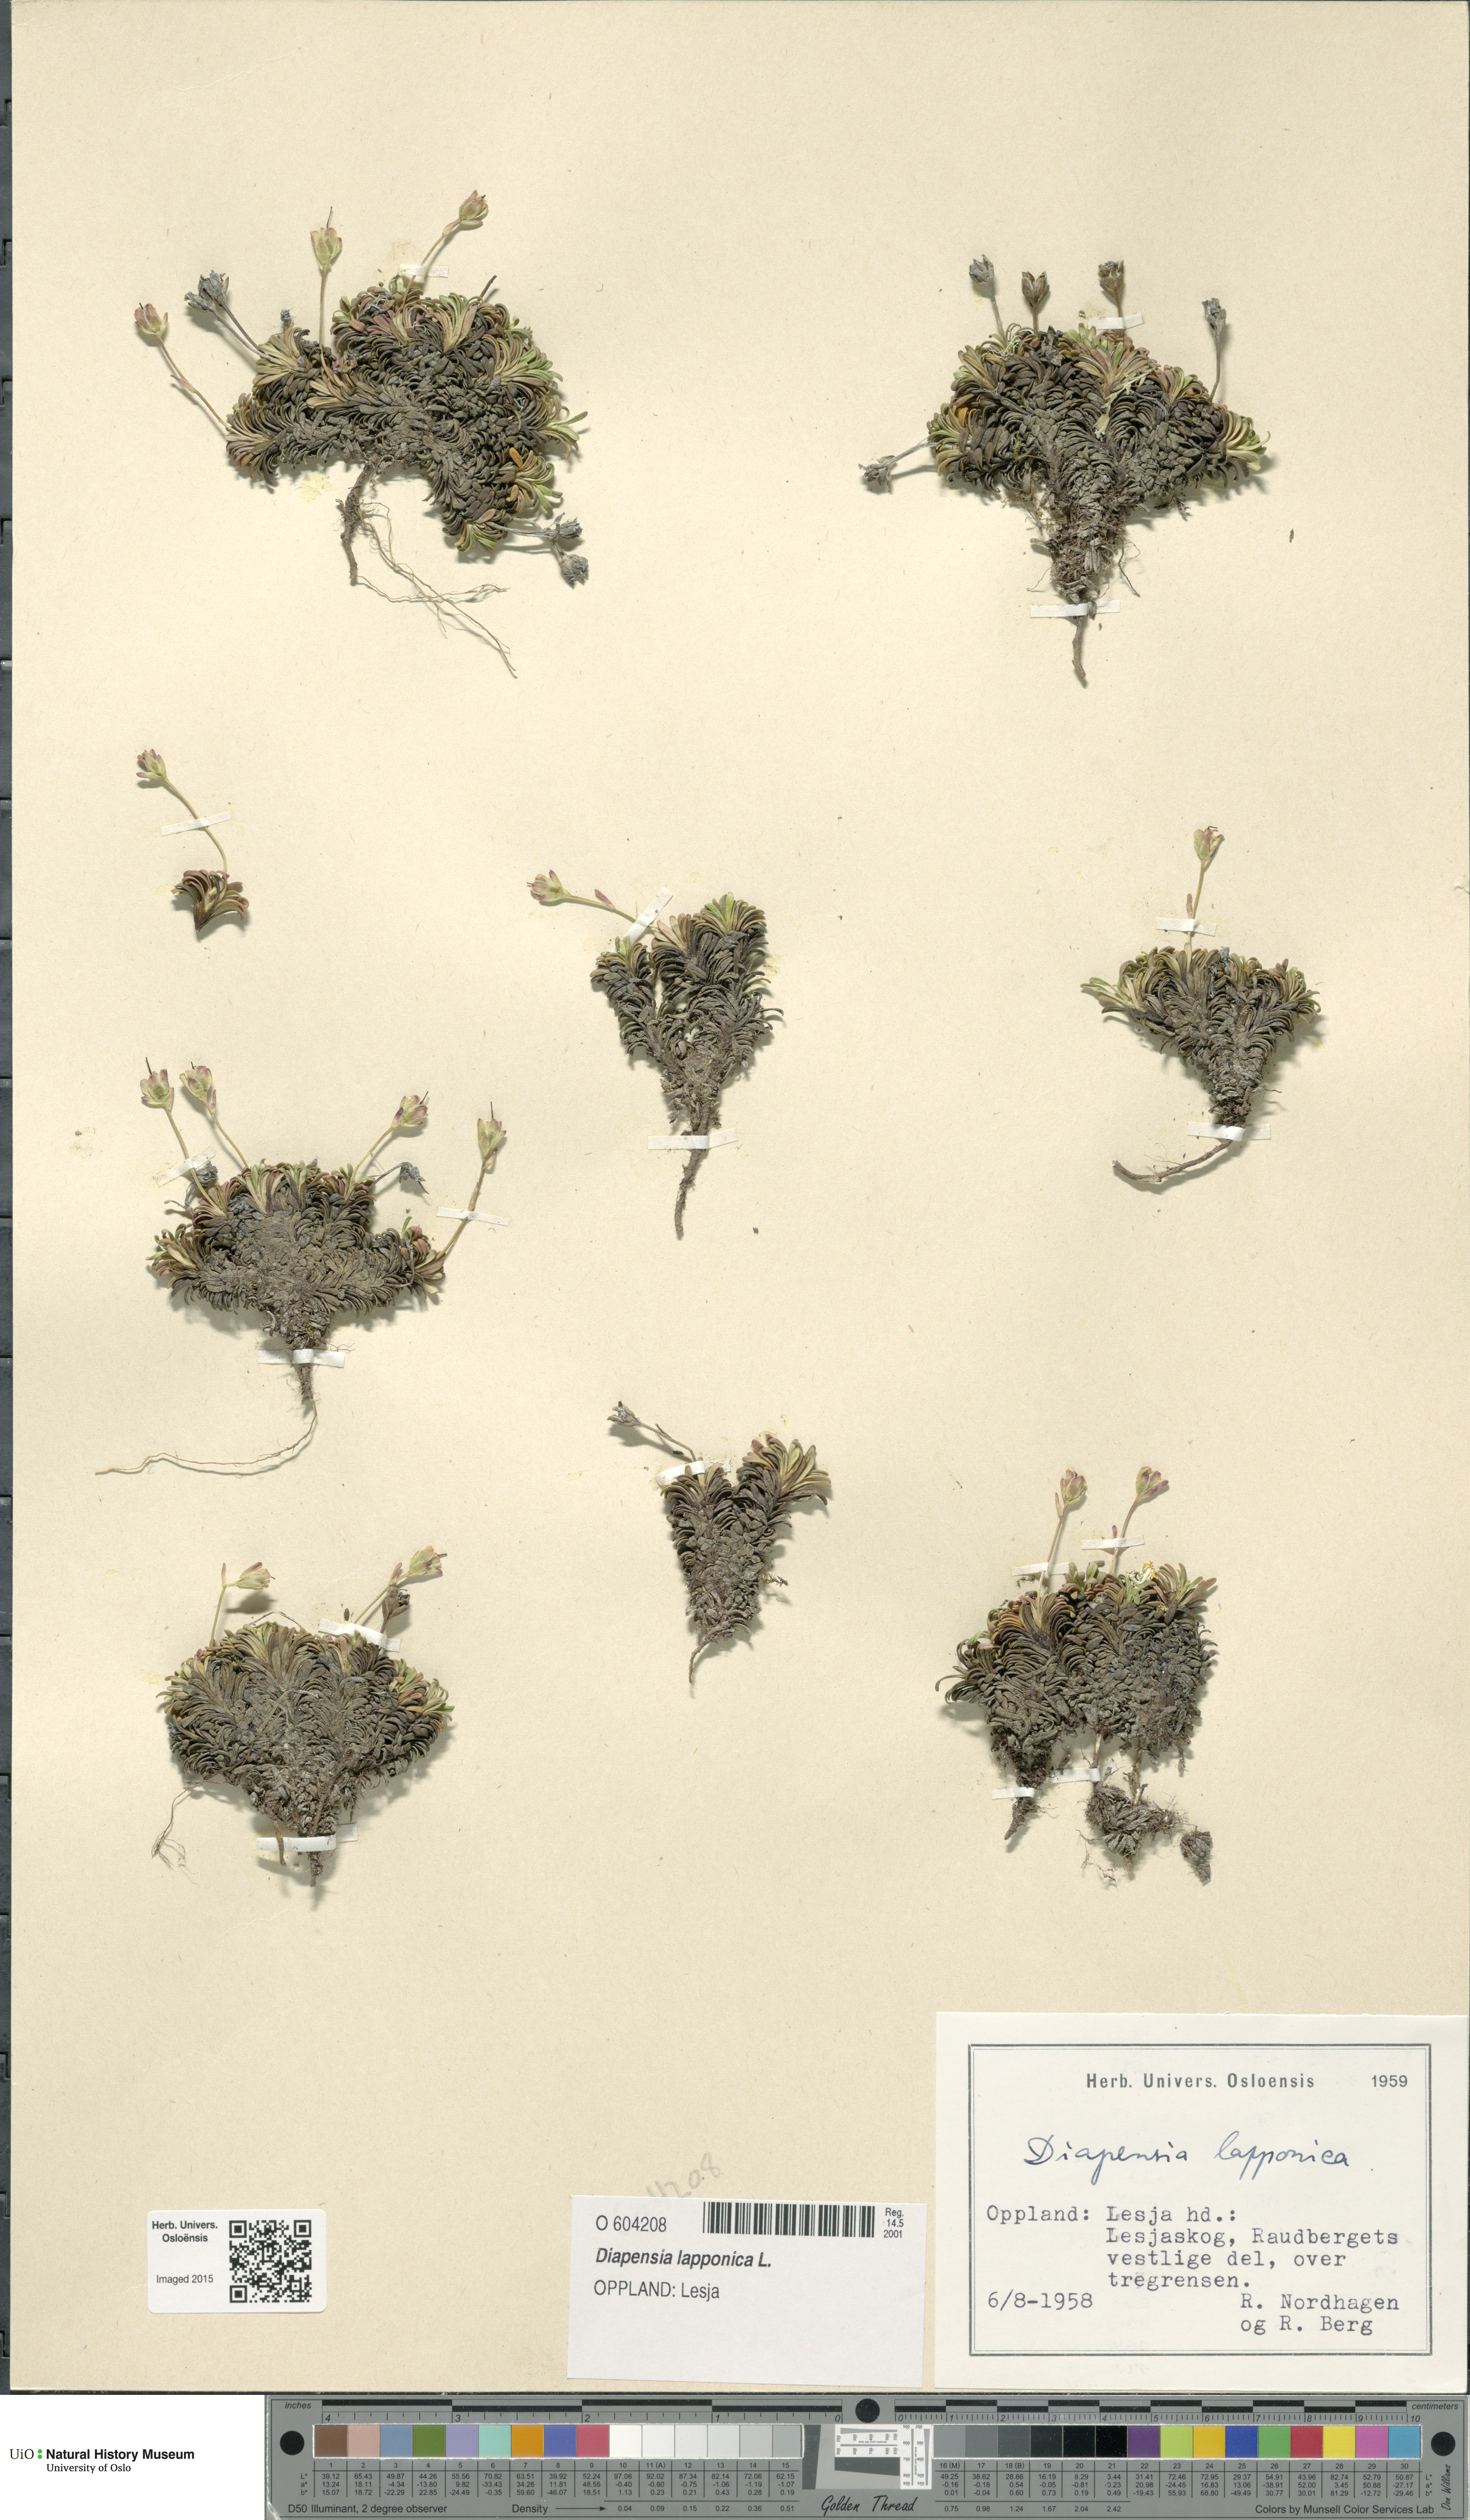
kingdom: Plantae
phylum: Tracheophyta
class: Magnoliopsida
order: Ericales
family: Diapensiaceae
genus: Diapensia
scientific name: Diapensia lapponica
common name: Diapensia
